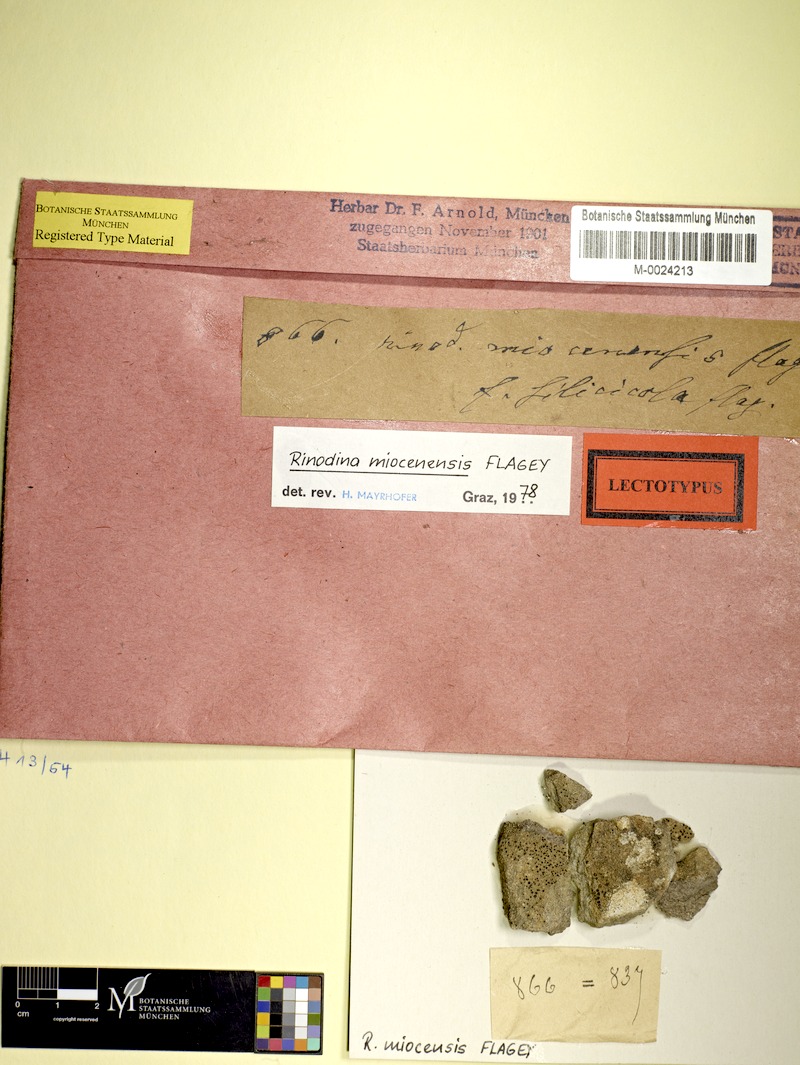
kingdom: Fungi
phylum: Ascomycota
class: Lecanoromycetes
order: Caliciales
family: Physciaceae
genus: Rinodina
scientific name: Rinodina guzzinii
